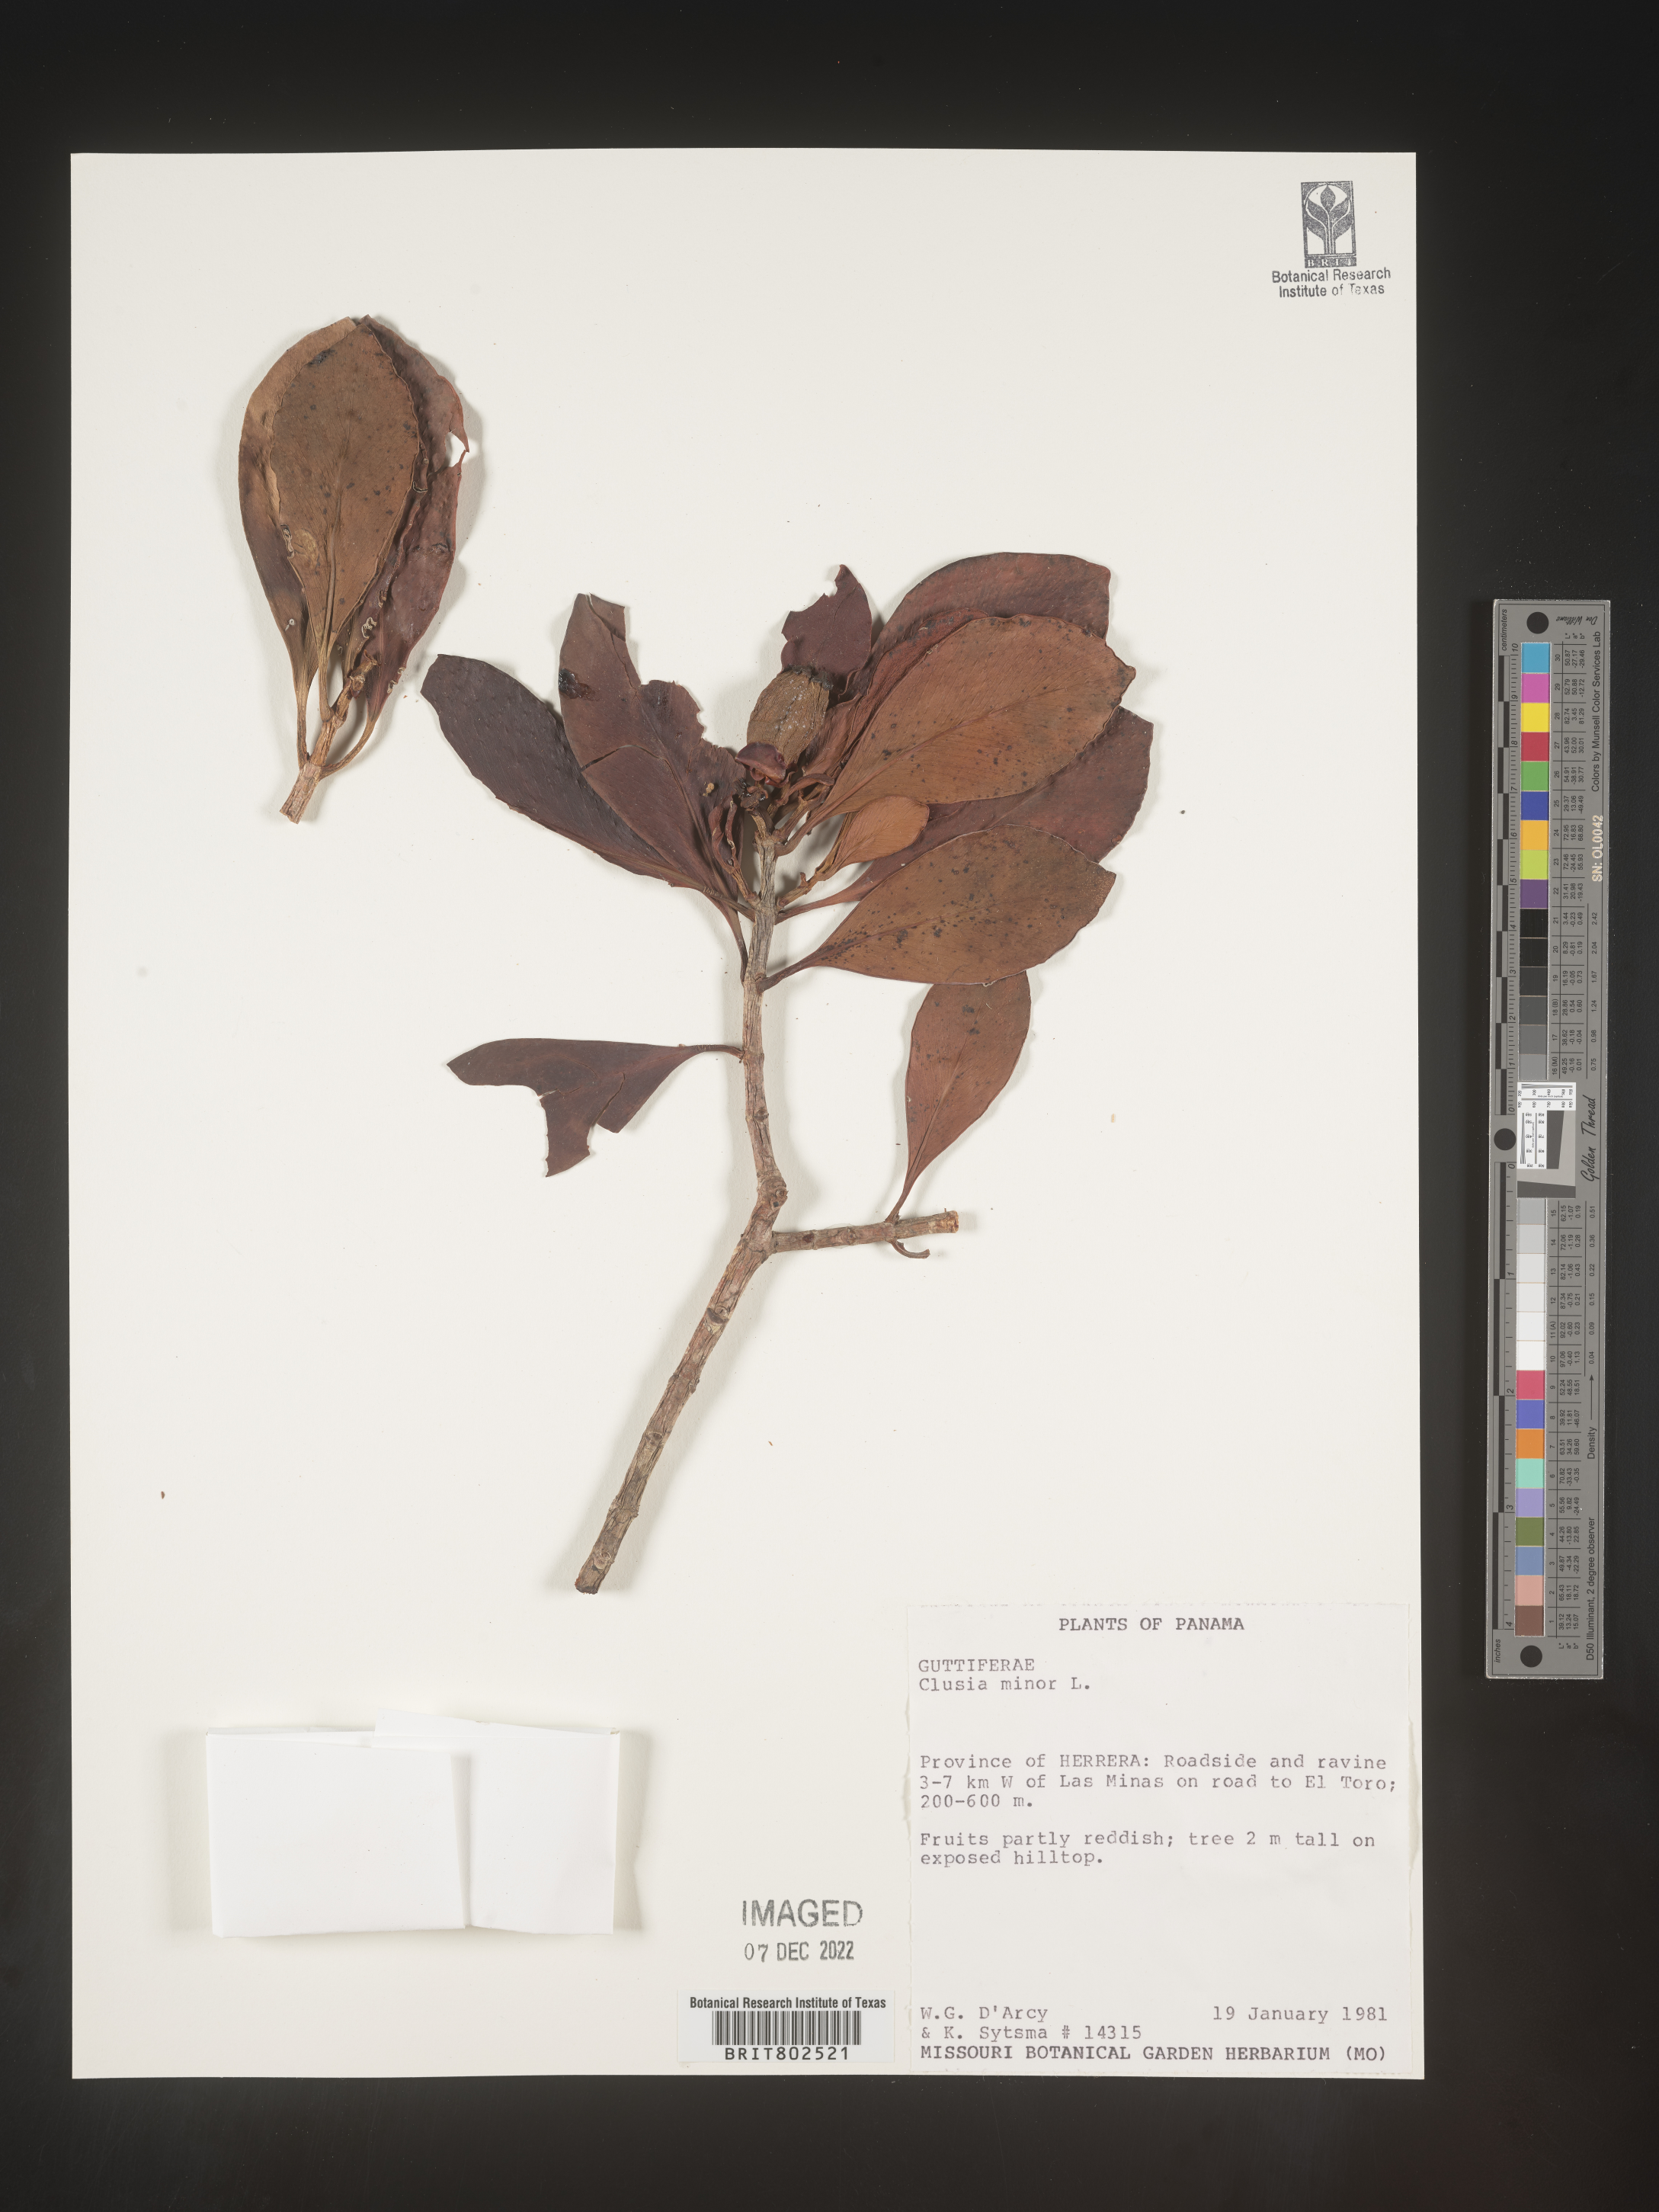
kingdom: Plantae
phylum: Tracheophyta
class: Magnoliopsida
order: Malpighiales
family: Clusiaceae
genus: Clusia
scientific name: Clusia minor
